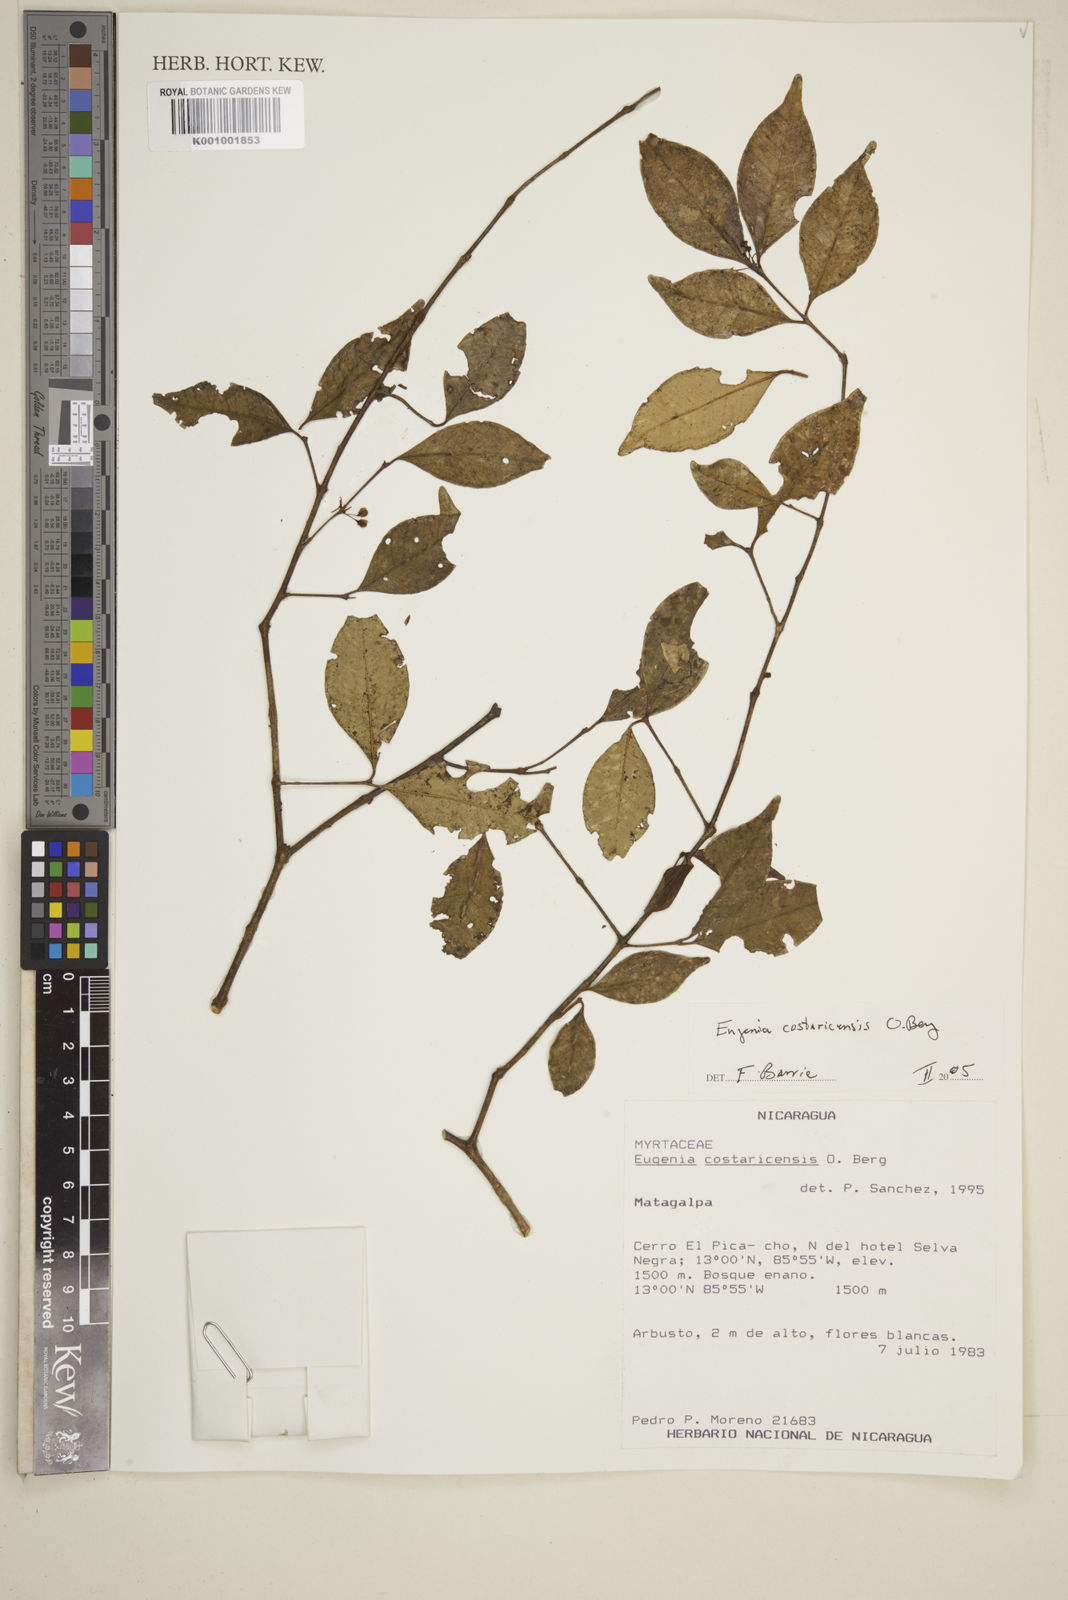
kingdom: Plantae
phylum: Tracheophyta
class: Magnoliopsida
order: Myrtales
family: Myrtaceae
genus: Eugenia
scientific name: Eugenia costaricensis
